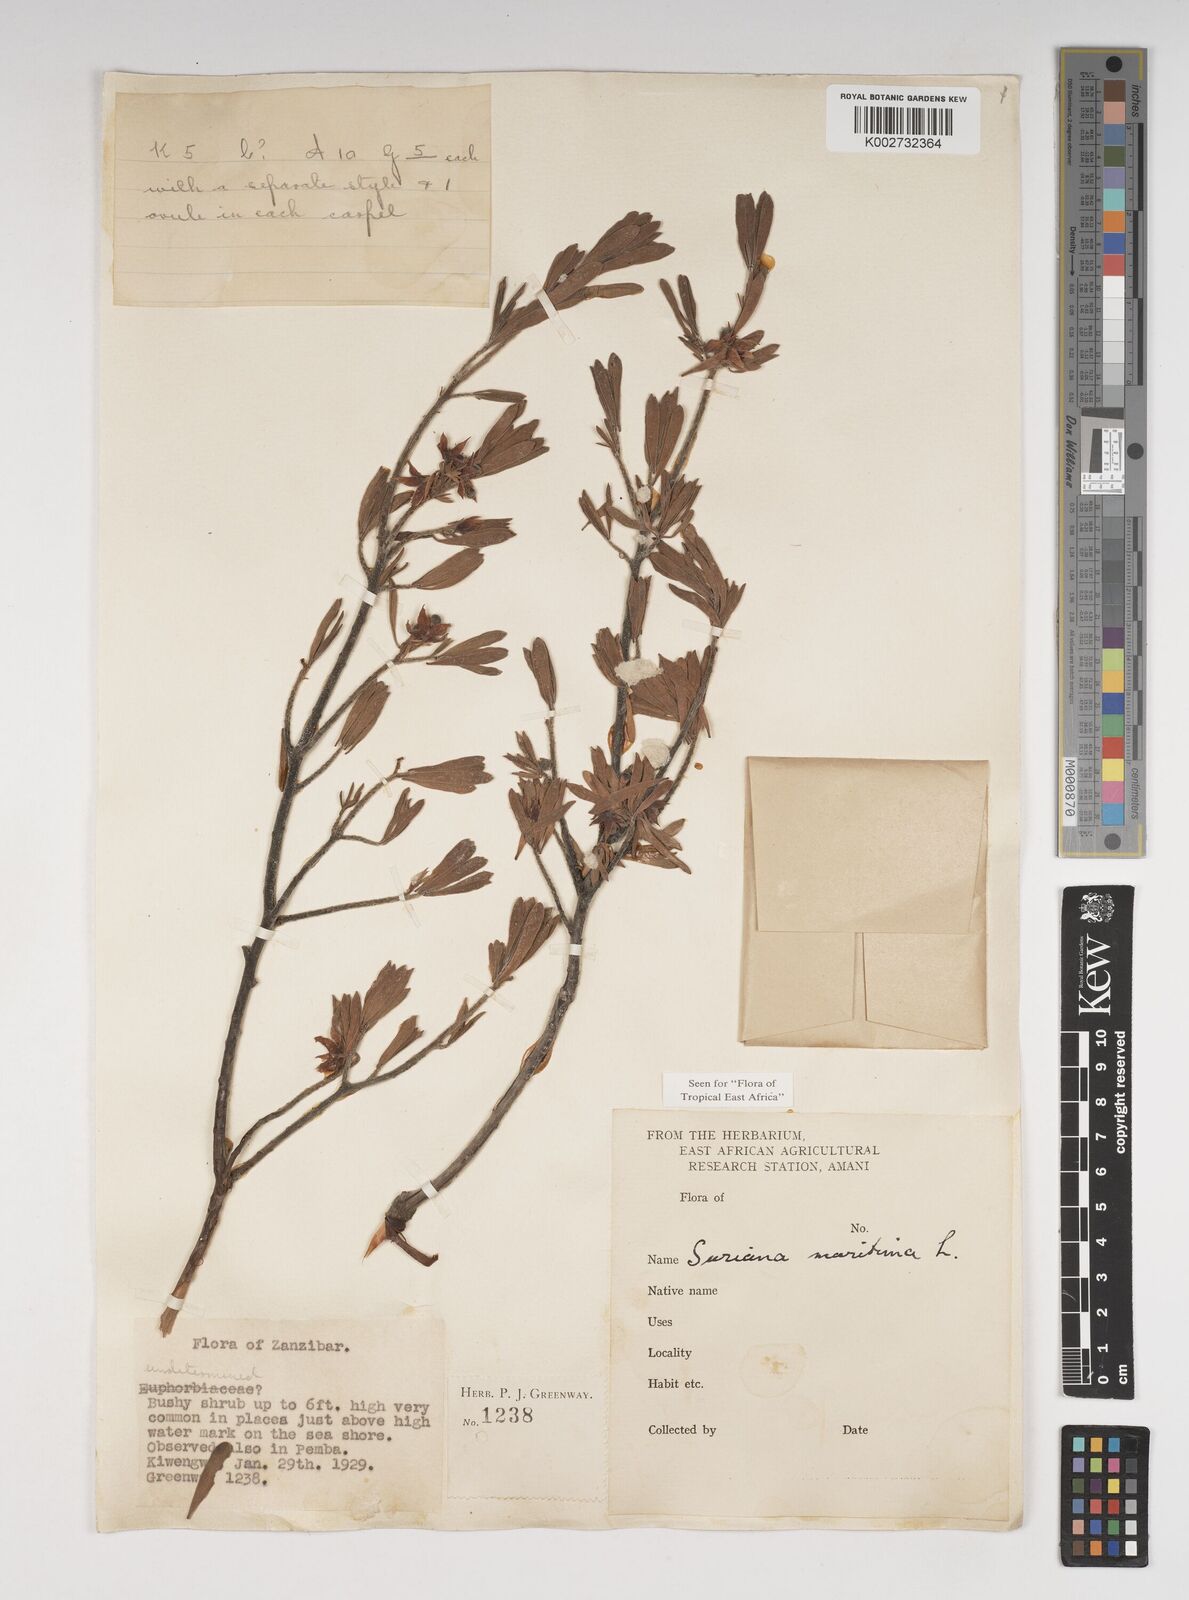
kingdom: Plantae
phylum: Tracheophyta
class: Magnoliopsida
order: Fabales
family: Surianaceae
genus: Suriana
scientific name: Suriana maritima
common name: Bay-cedar
